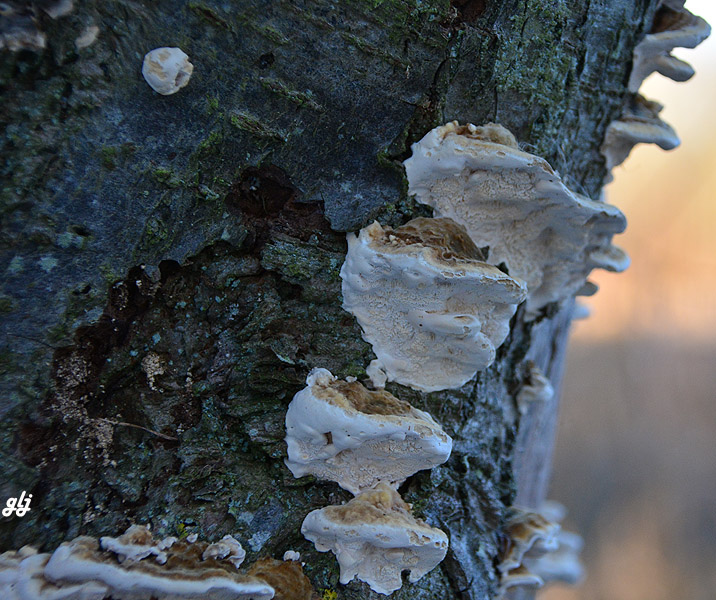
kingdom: Fungi
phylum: Basidiomycota
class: Agaricomycetes
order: Polyporales
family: Polyporaceae
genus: Trametes
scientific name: Trametes
